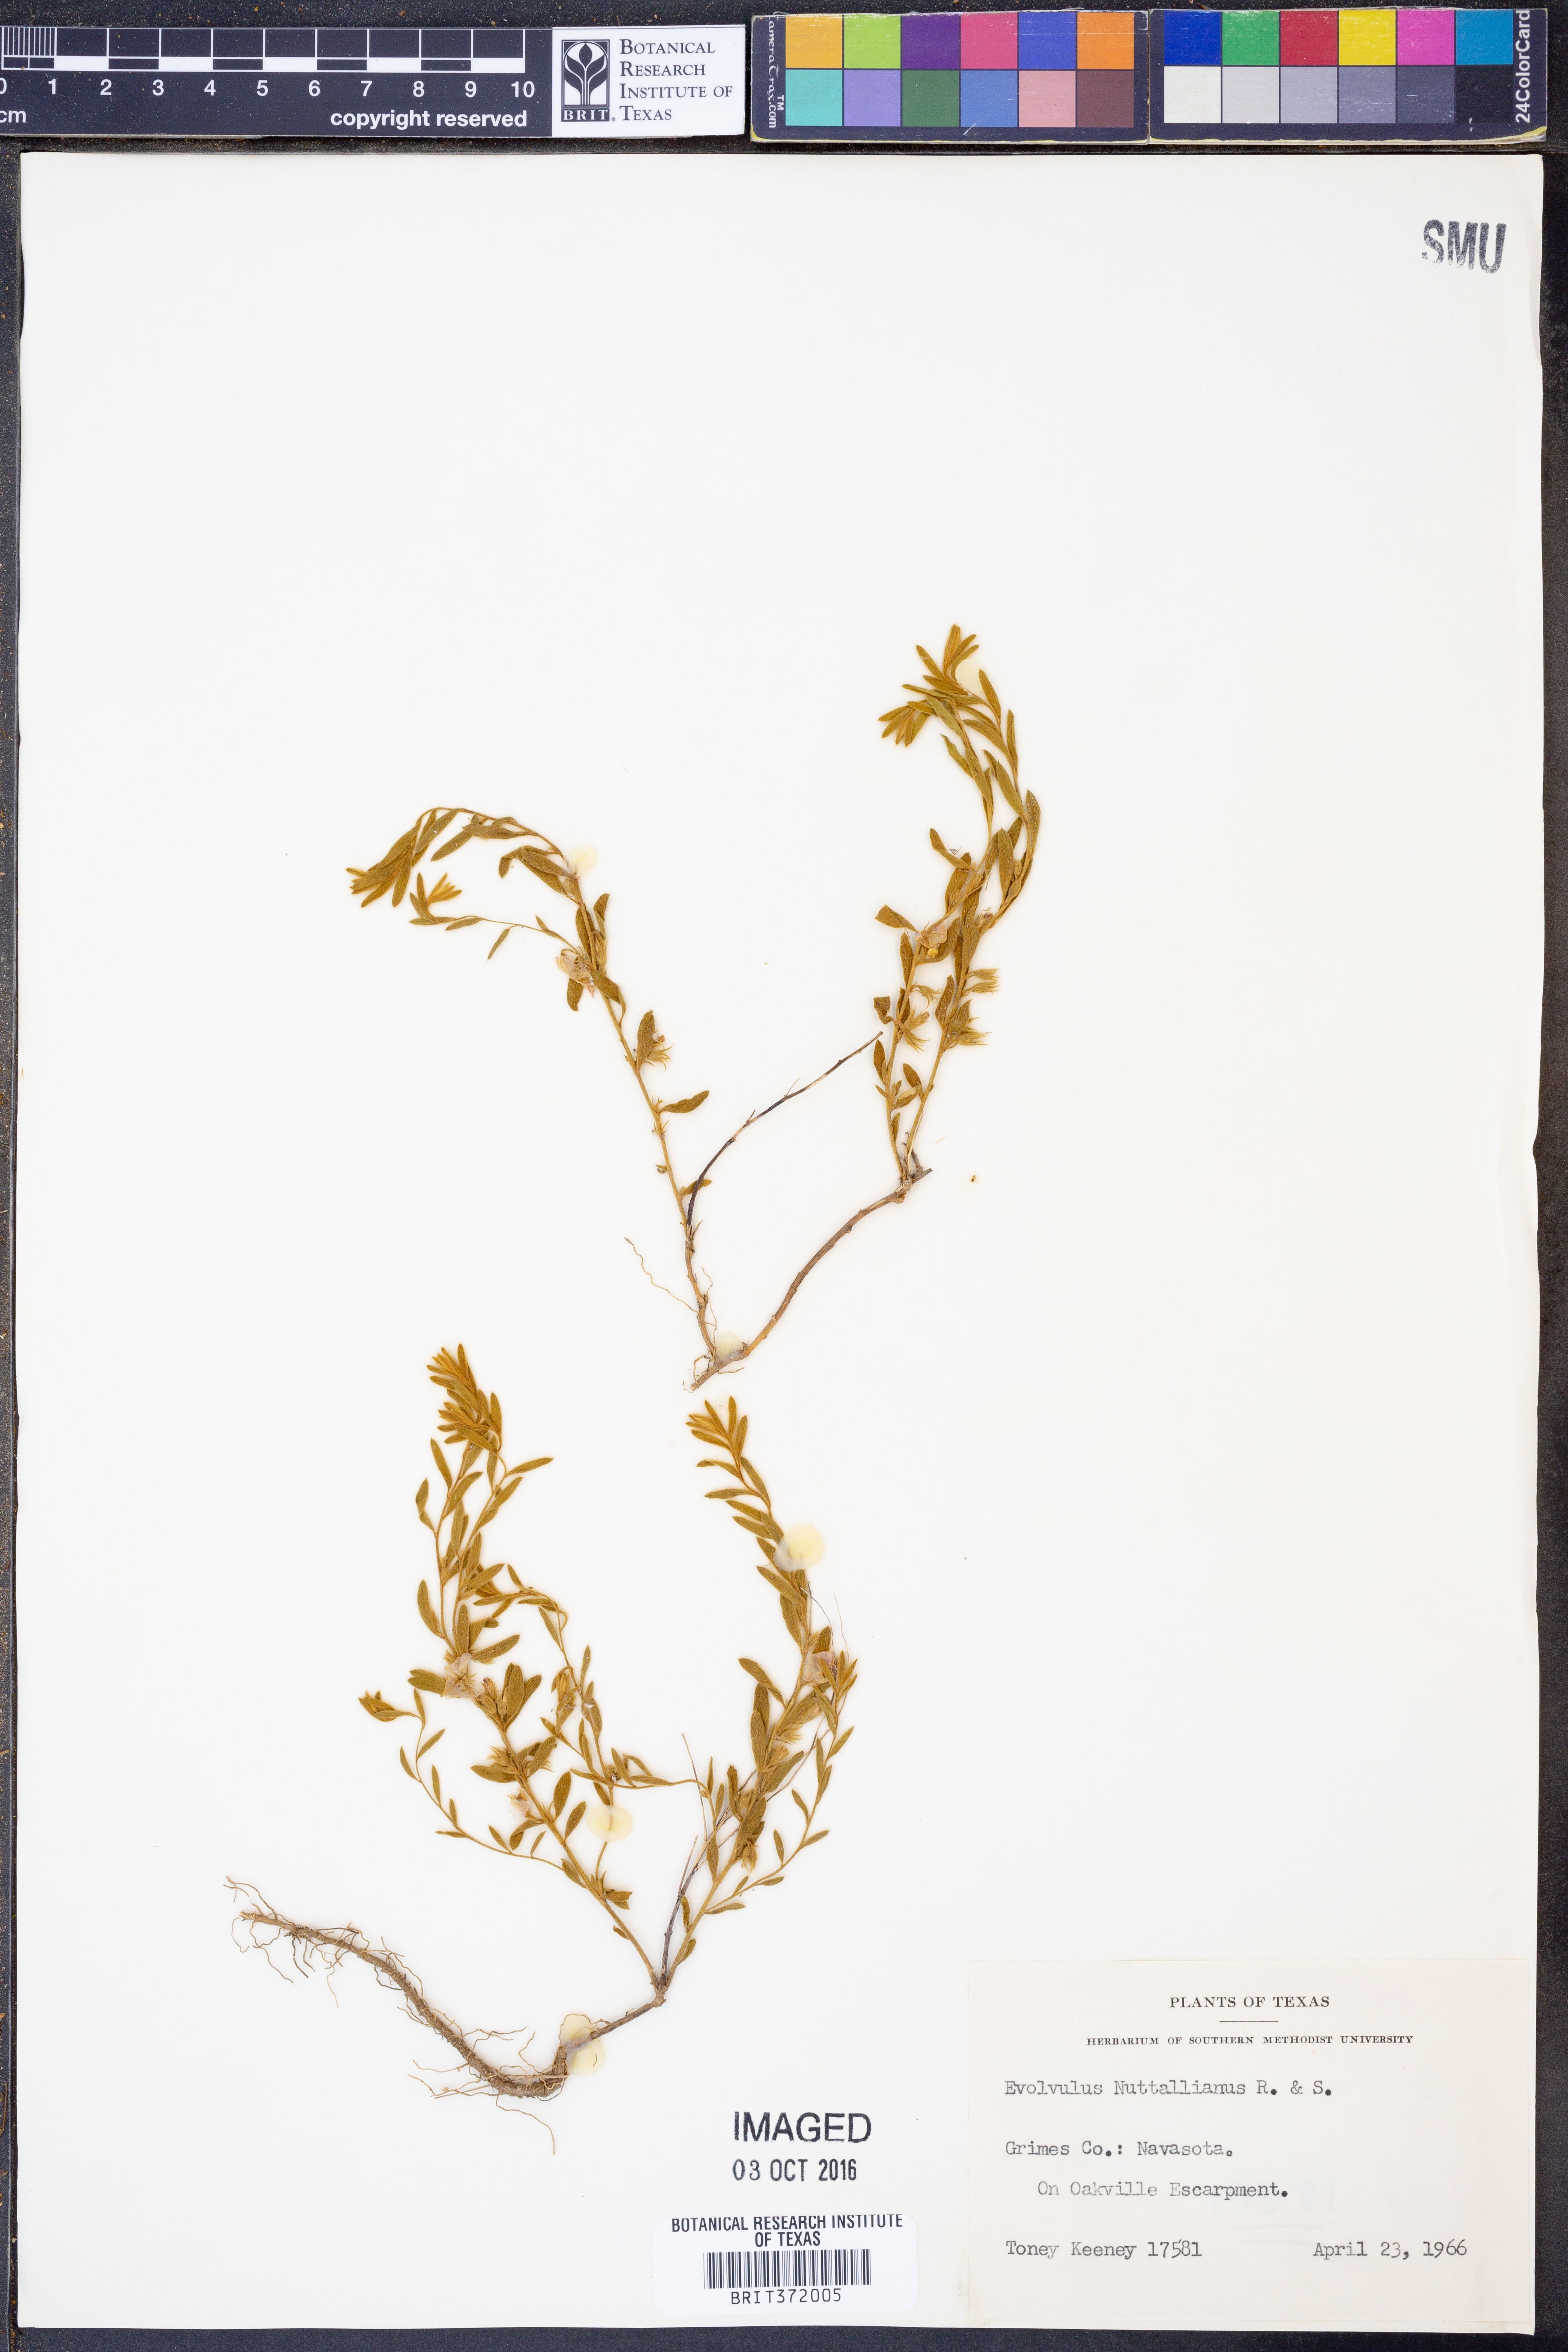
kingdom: Plantae
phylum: Tracheophyta
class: Magnoliopsida
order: Solanales
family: Convolvulaceae
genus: Evolvulus
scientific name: Evolvulus nuttallianus
